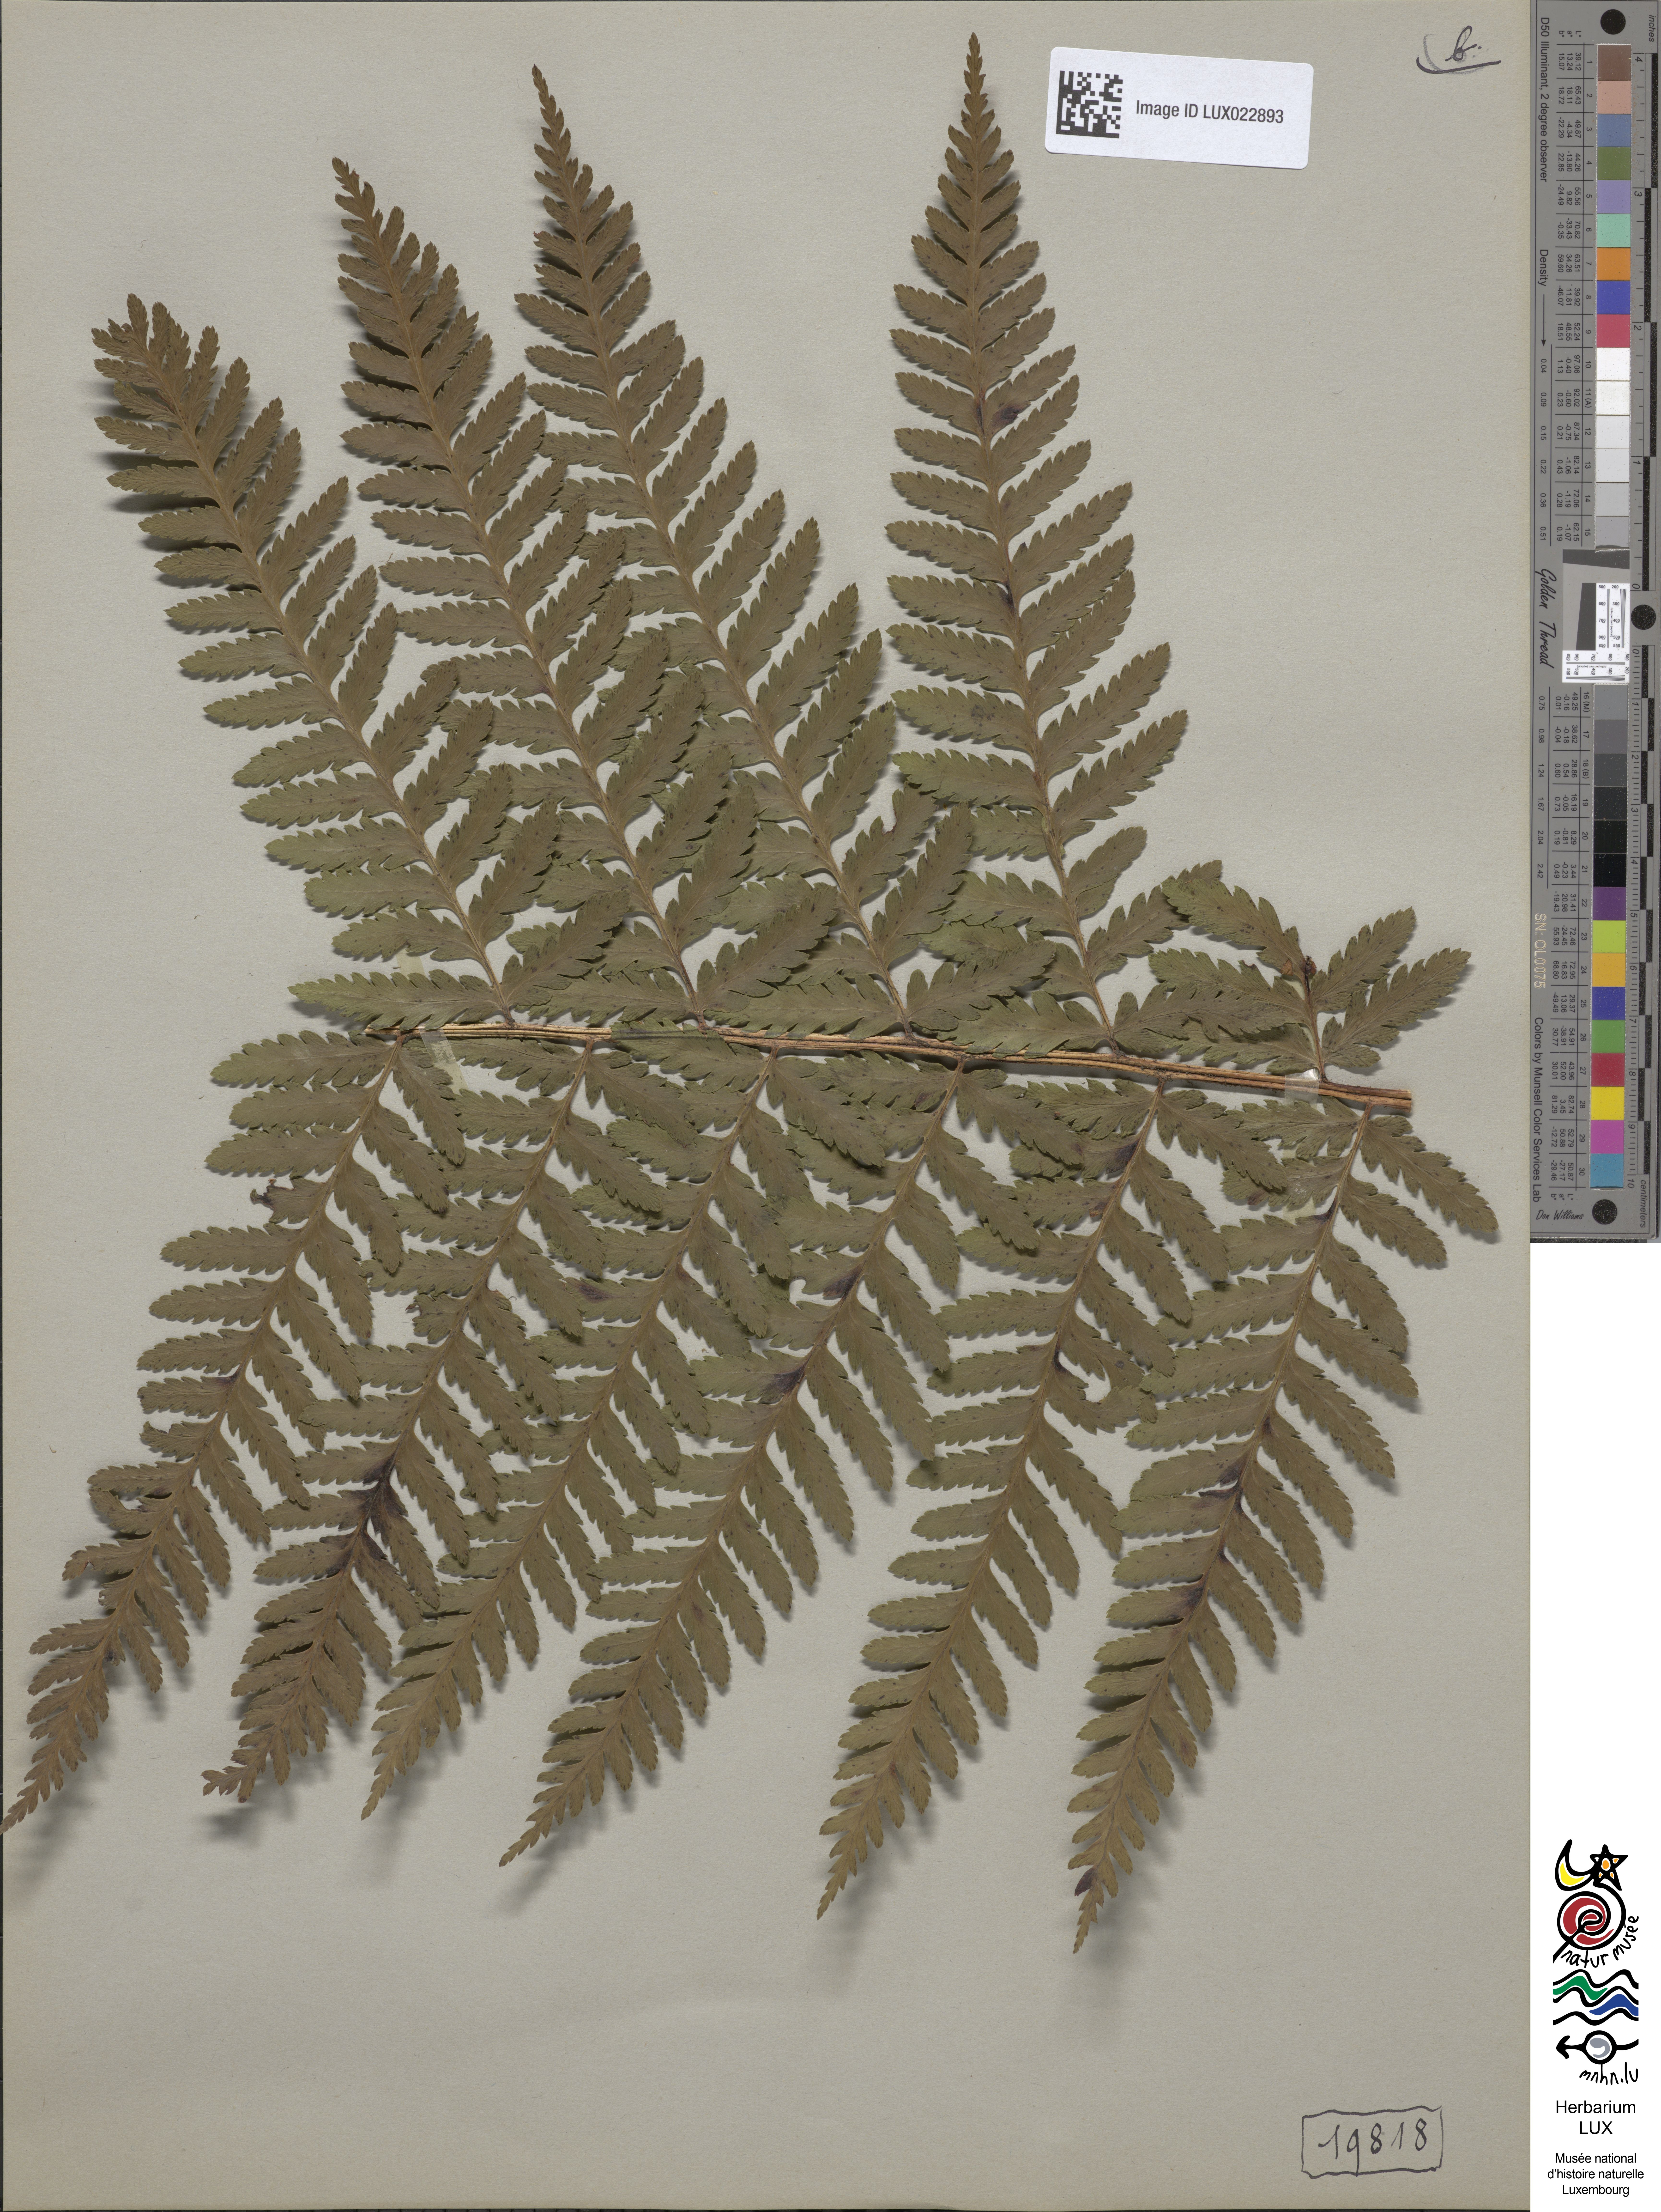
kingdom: Plantae
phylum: Tracheophyta
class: Polypodiopsida
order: Polypodiales
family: Dryopteridaceae
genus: Dryopteris
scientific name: Dryopteris filix-mas
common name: Male fern
